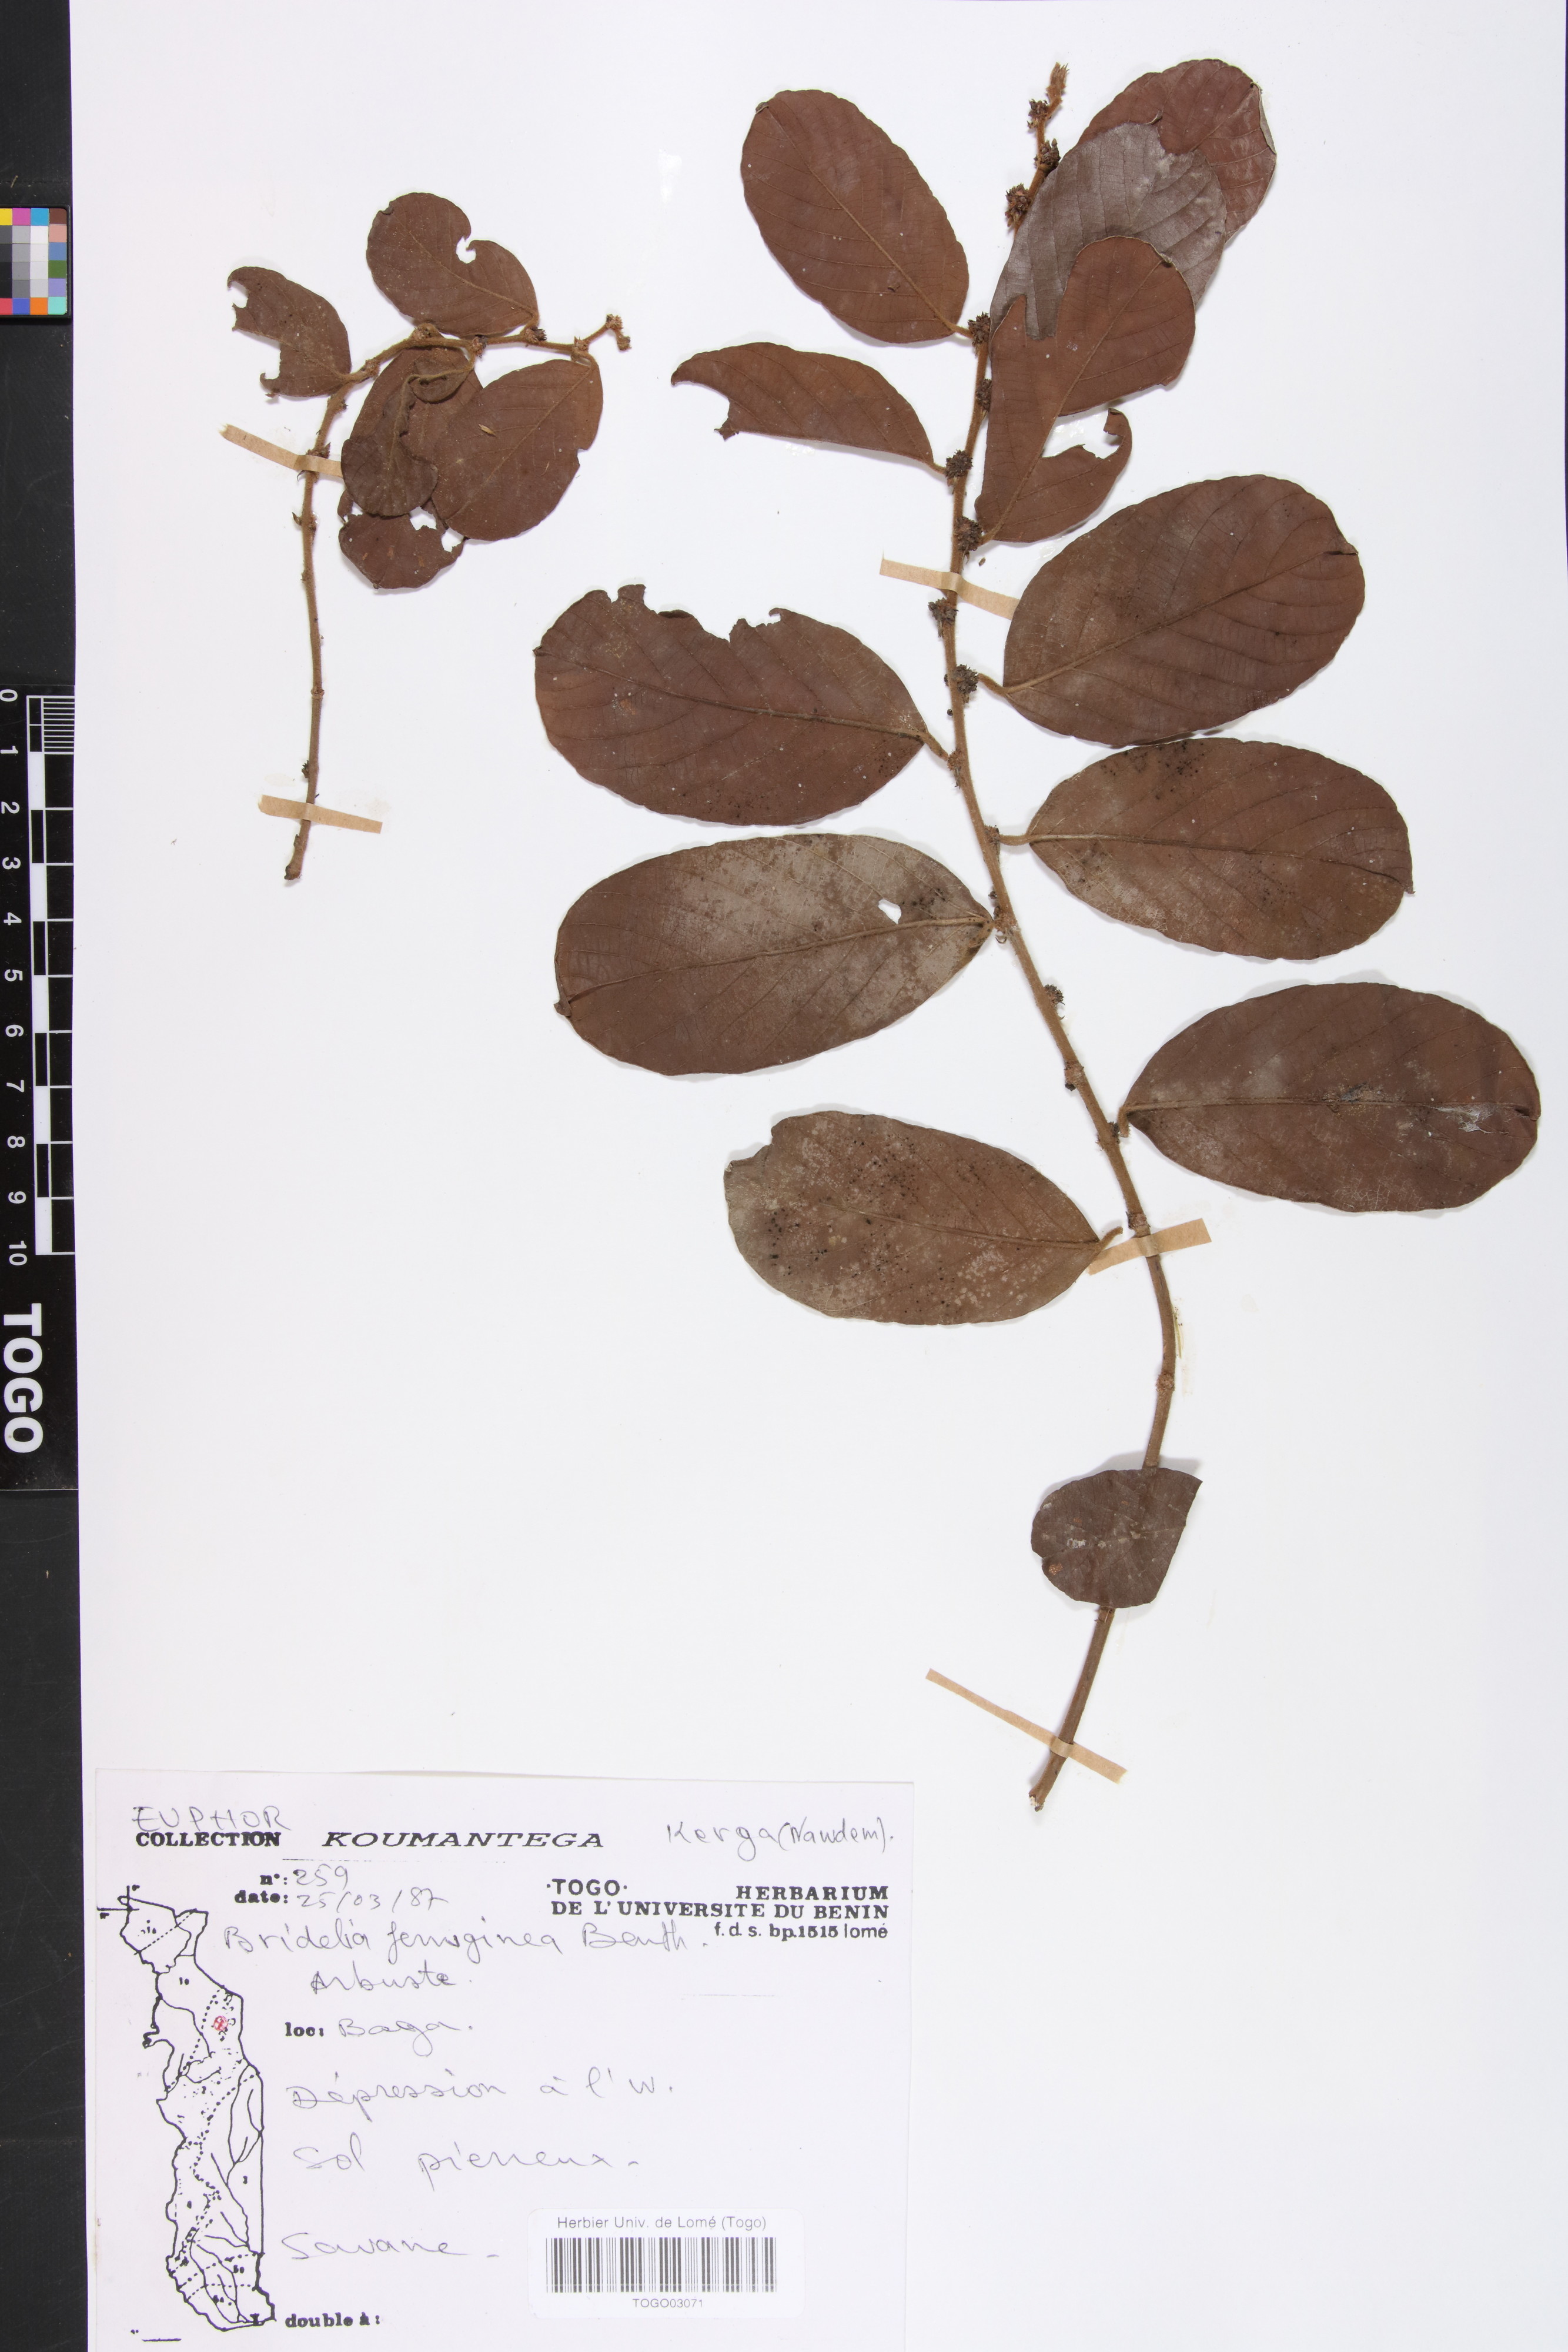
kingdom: Plantae
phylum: Tracheophyta
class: Magnoliopsida
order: Malpighiales
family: Phyllanthaceae
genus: Bridelia
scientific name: Bridelia ferruginea
